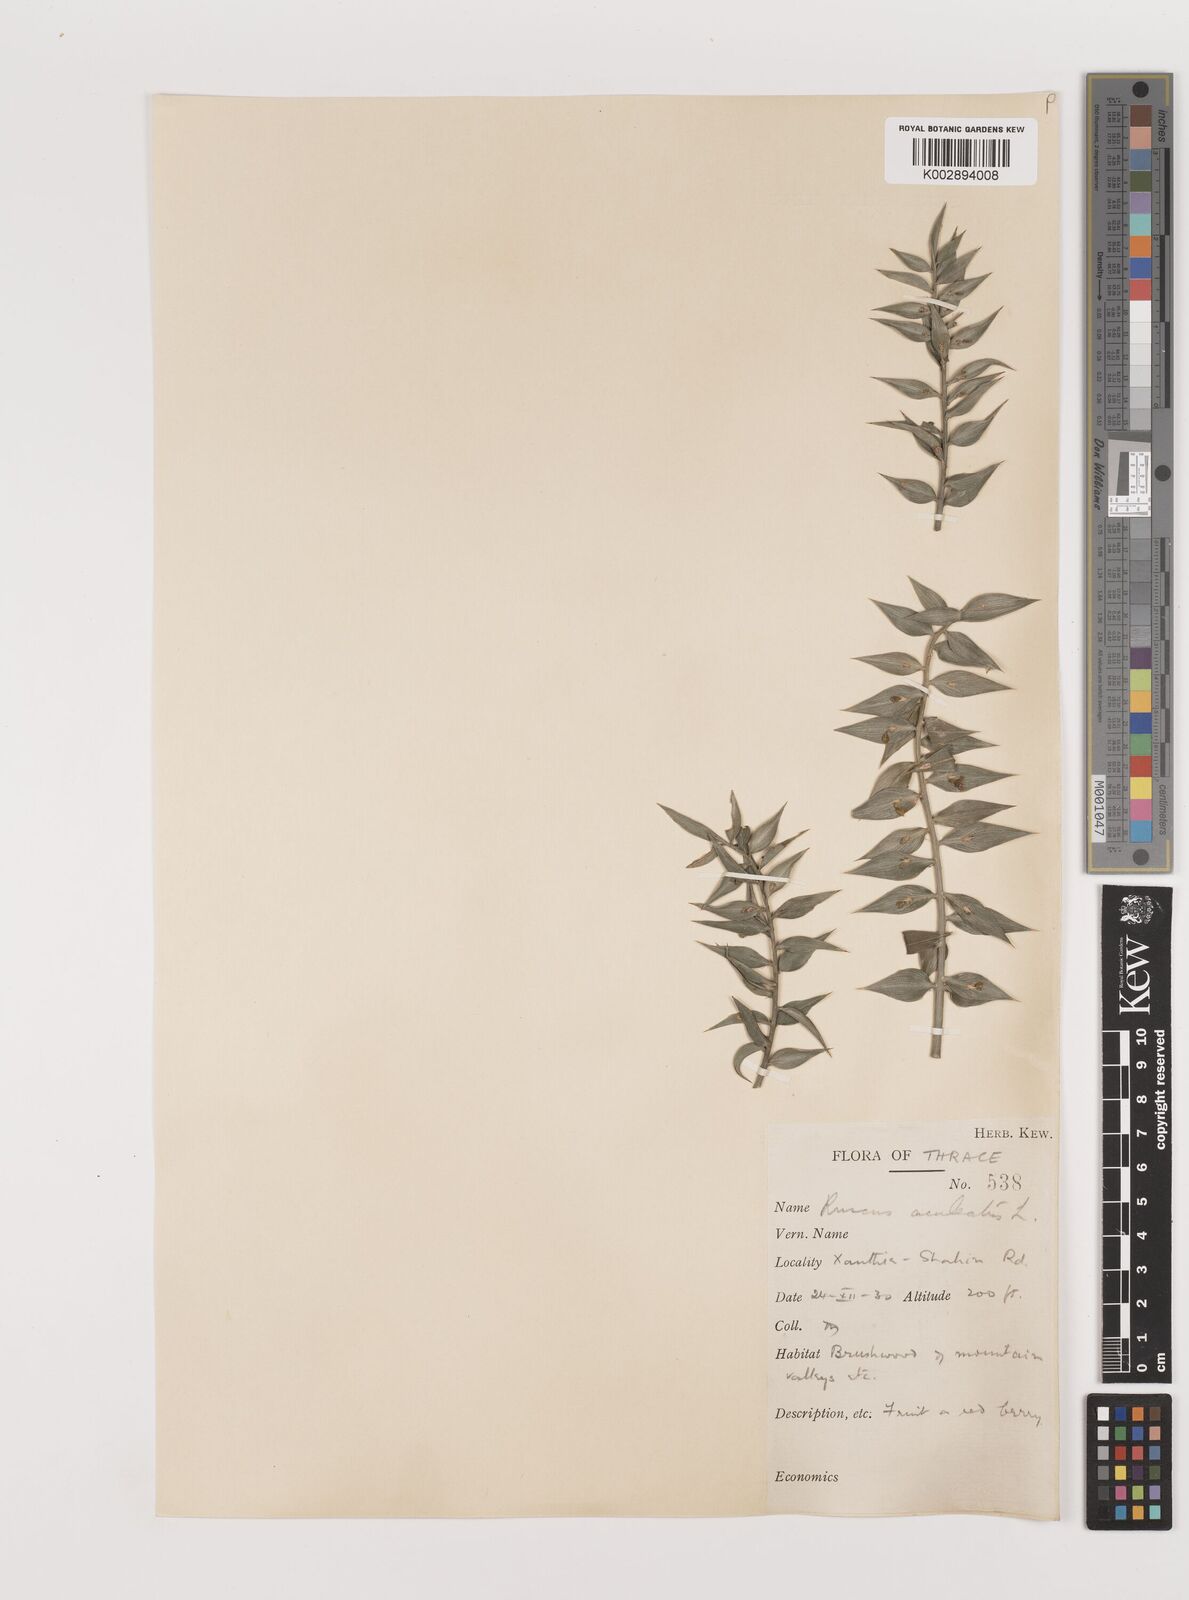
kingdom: Plantae
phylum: Tracheophyta
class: Liliopsida
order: Asparagales
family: Asparagaceae
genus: Ruscus
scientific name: Ruscus aculeatus
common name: Butcher's-broom
